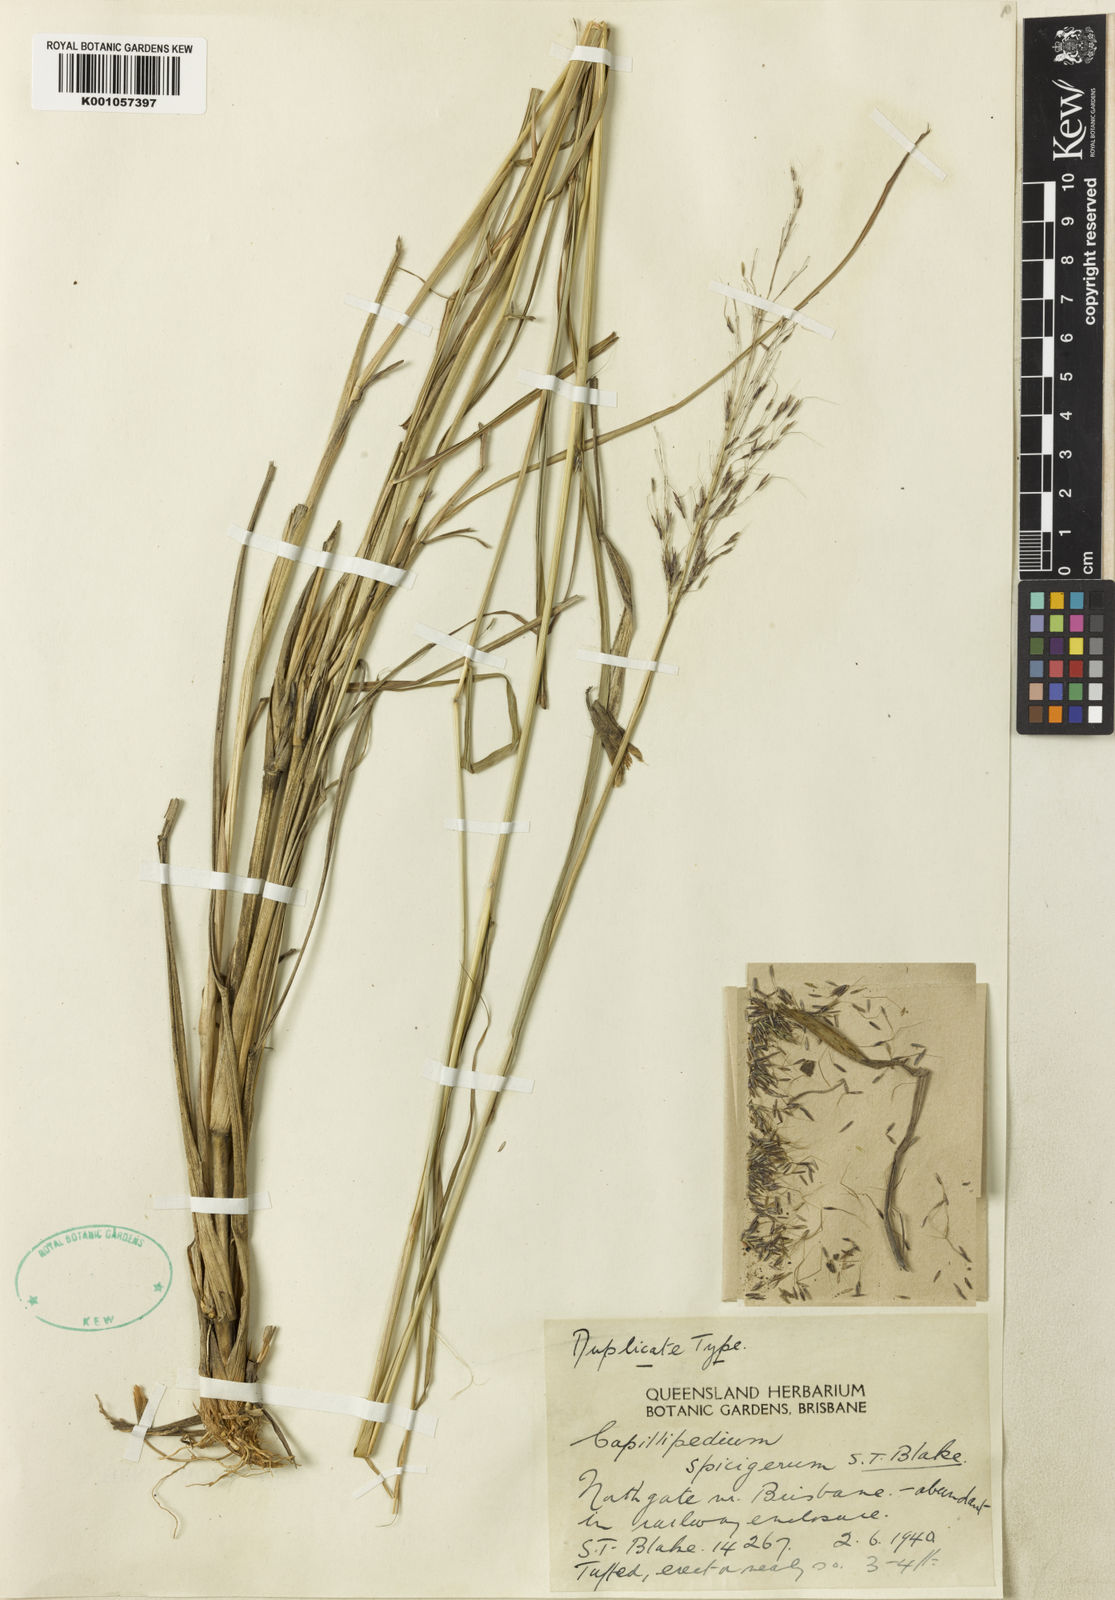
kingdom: Plantae
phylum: Tracheophyta
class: Liliopsida
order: Poales
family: Poaceae
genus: Capillipedium
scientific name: Capillipedium spicigerum
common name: Scented-top grass
